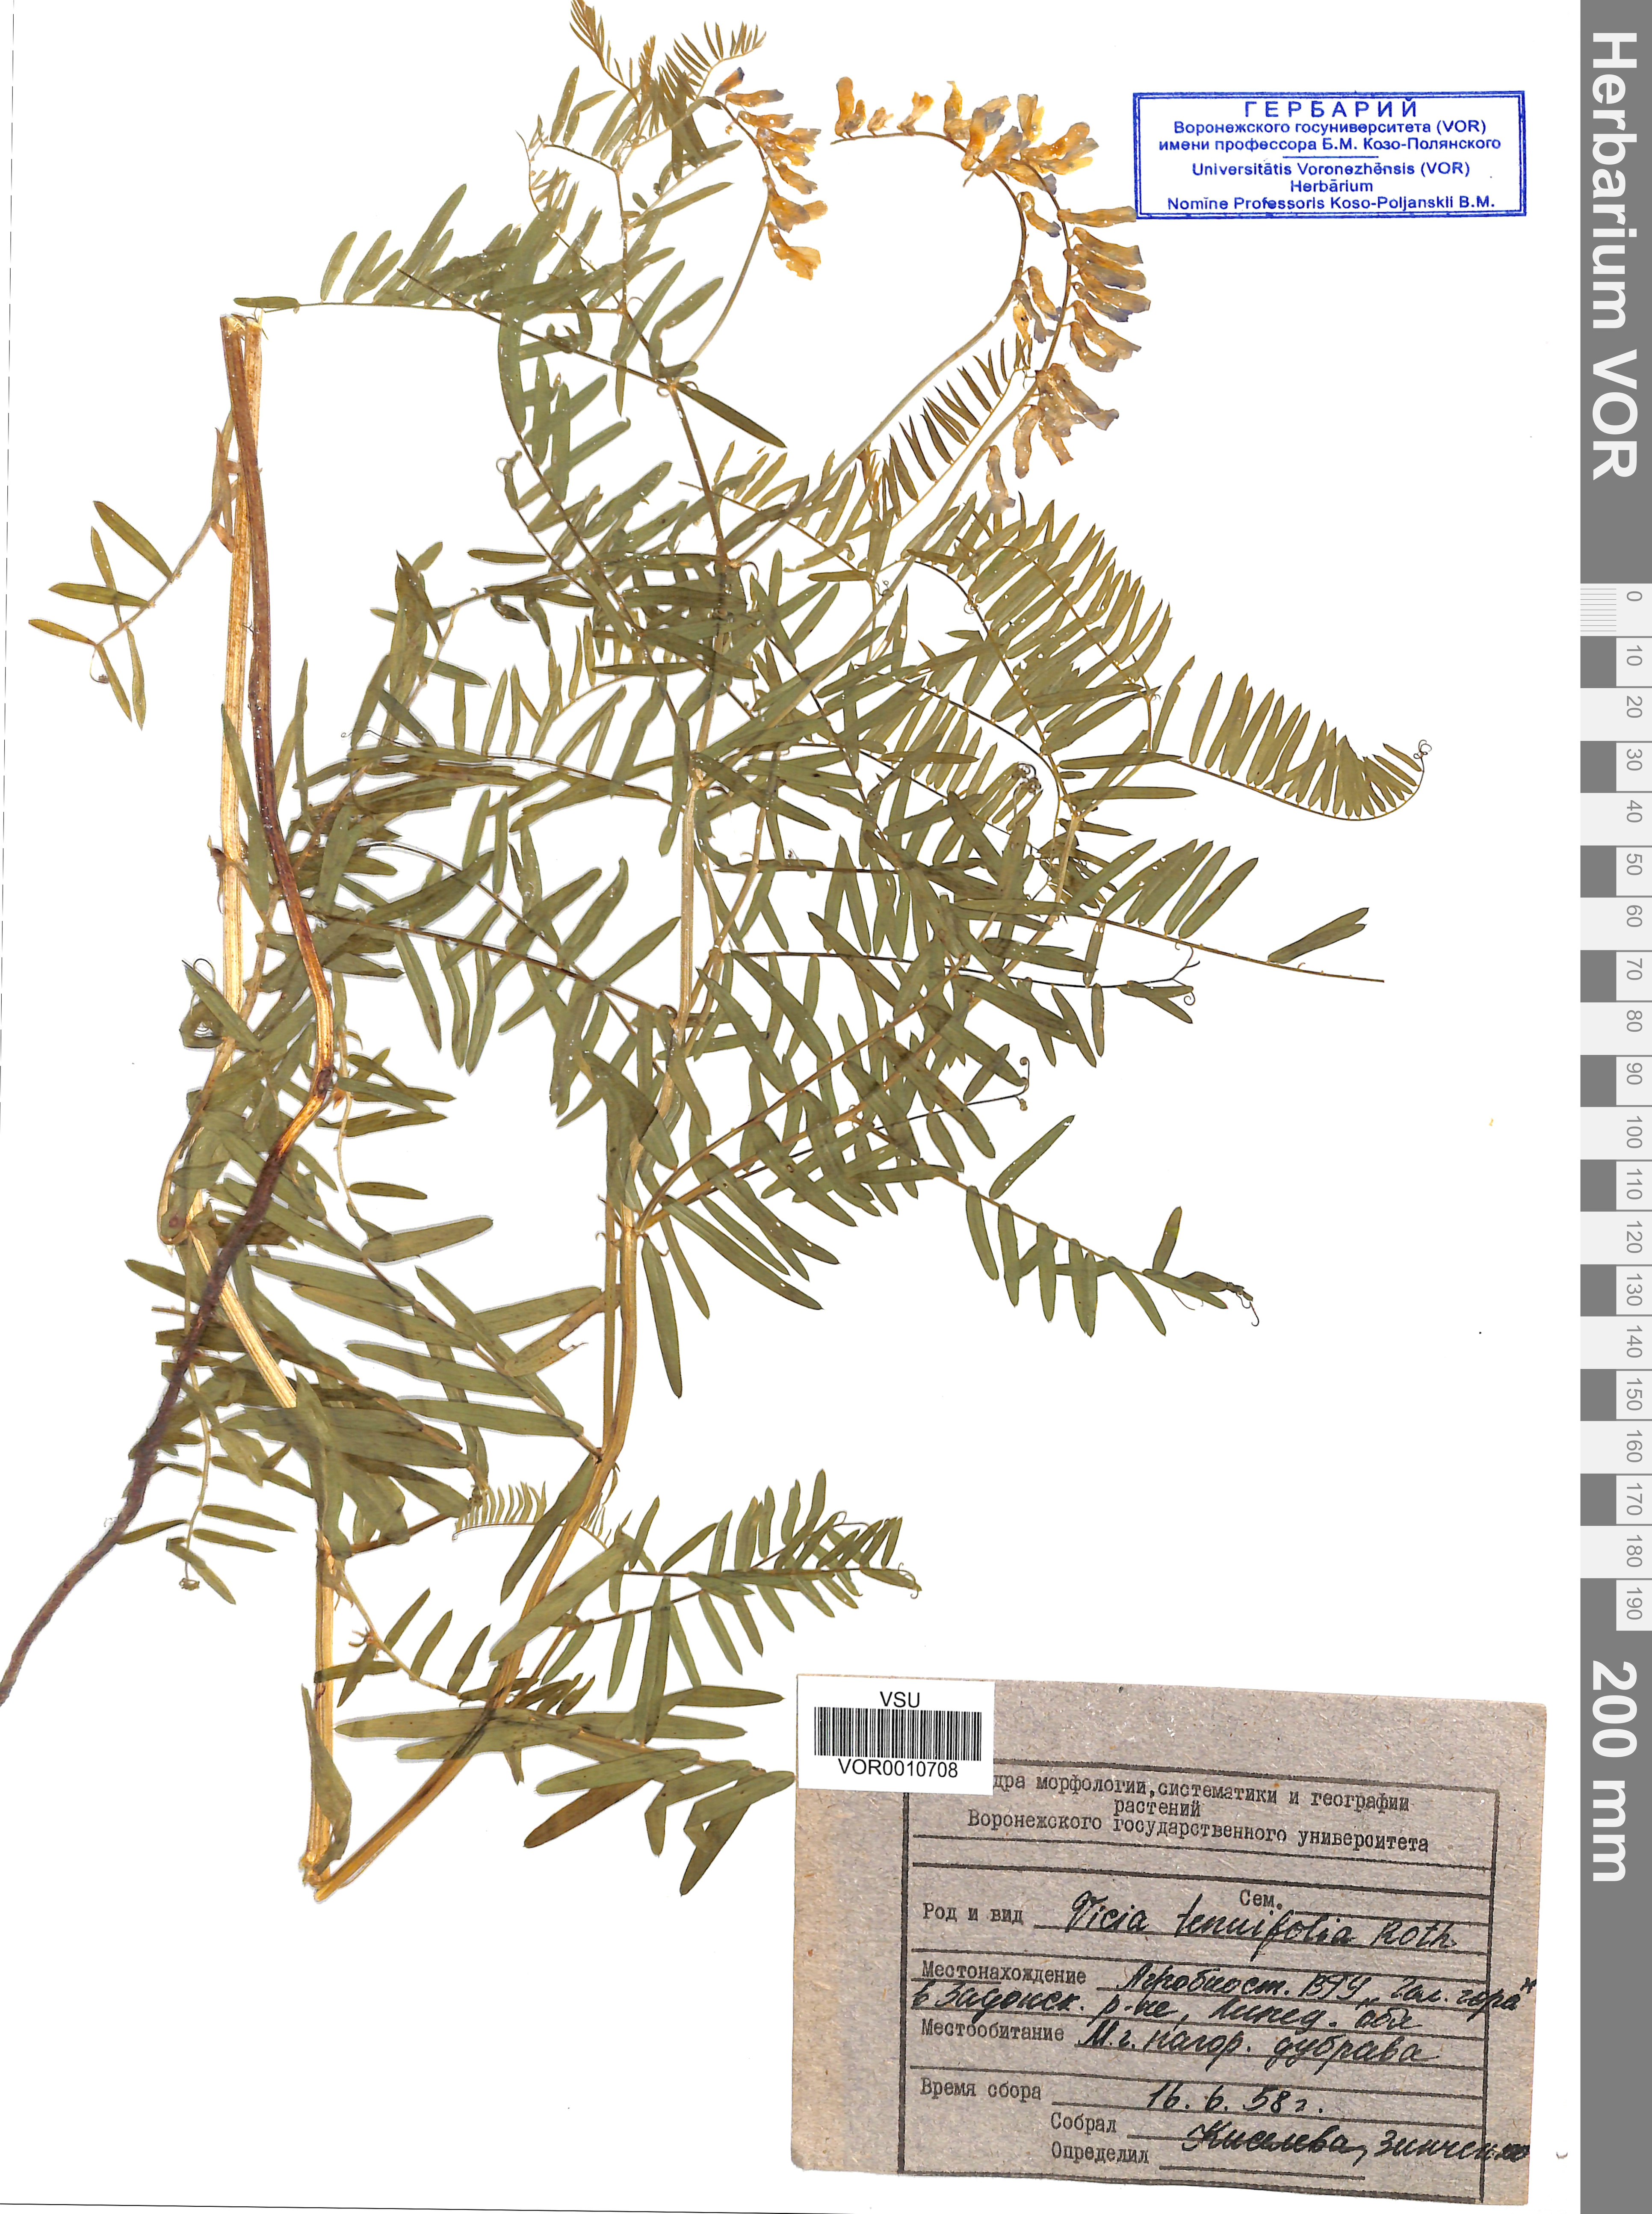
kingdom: Plantae
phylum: Tracheophyta
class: Magnoliopsida
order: Fabales
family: Fabaceae
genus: Vicia
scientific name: Vicia tenuifolia
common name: Fine-leaved vetch
